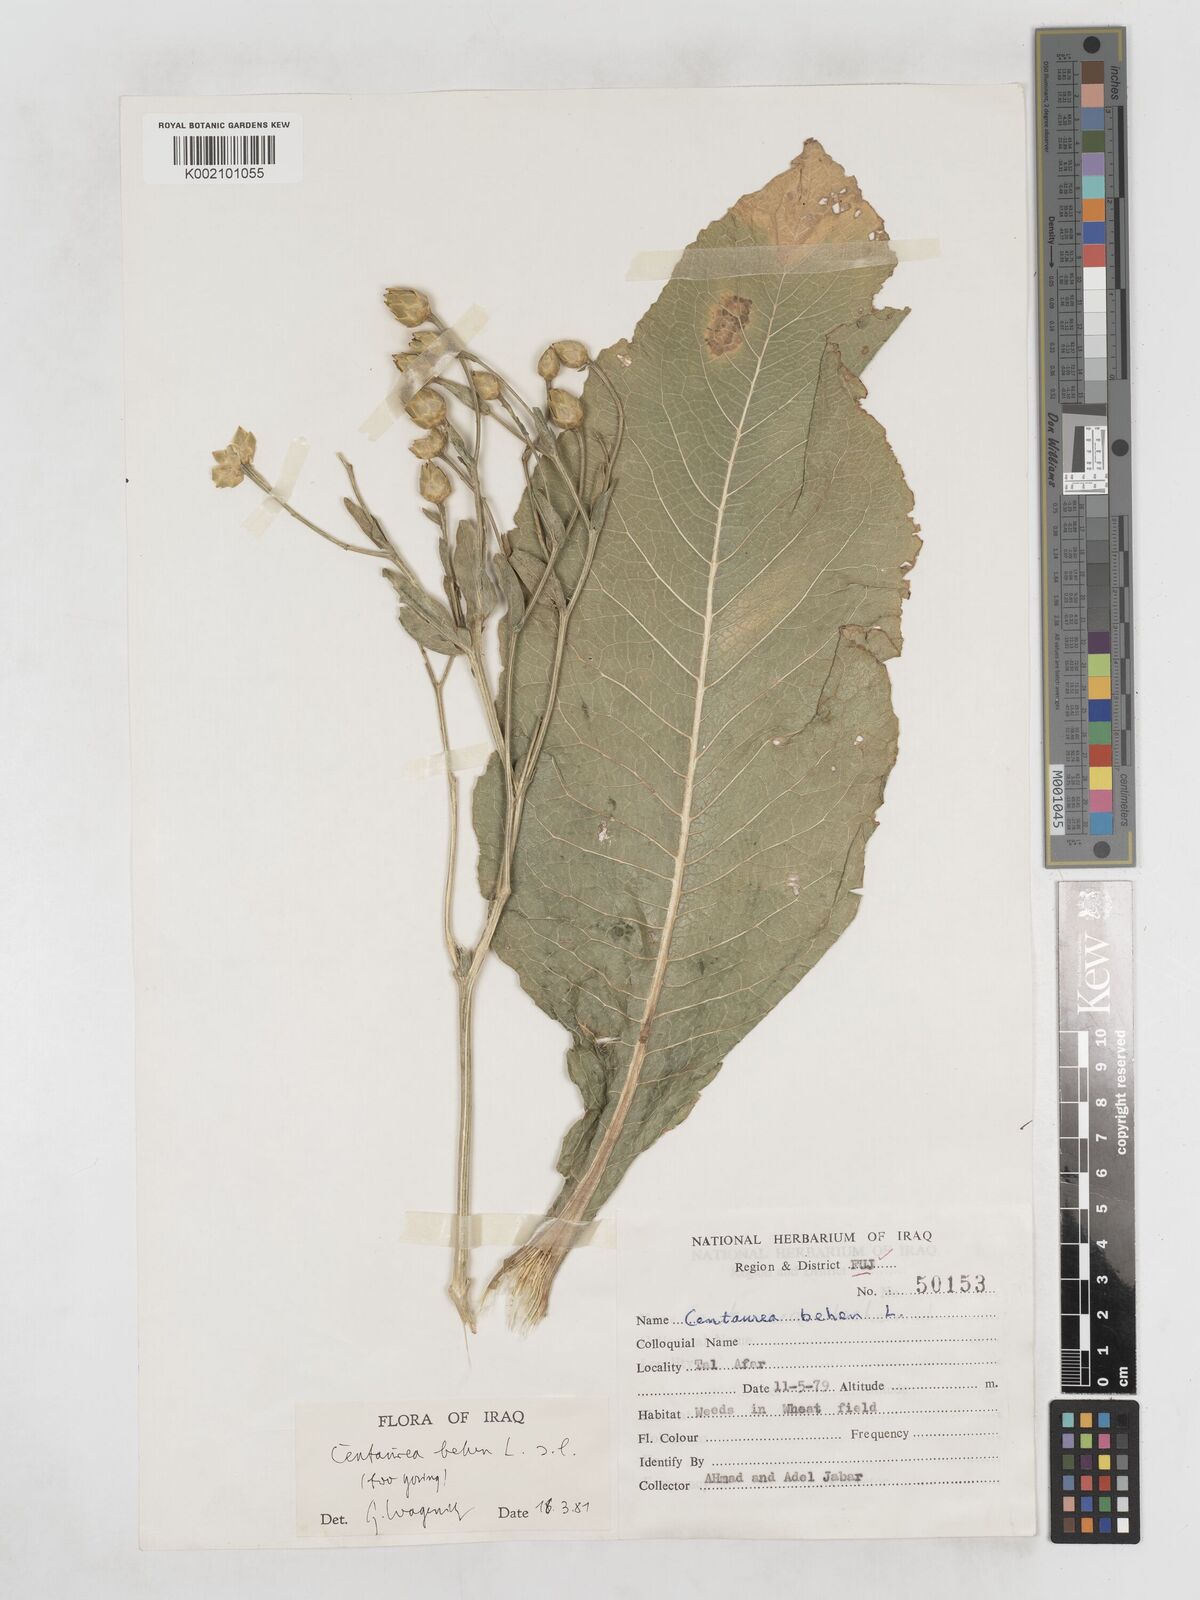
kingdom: Plantae
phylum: Tracheophyta
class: Magnoliopsida
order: Asterales
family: Asteraceae
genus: Centaurea
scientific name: Centaurea behen
